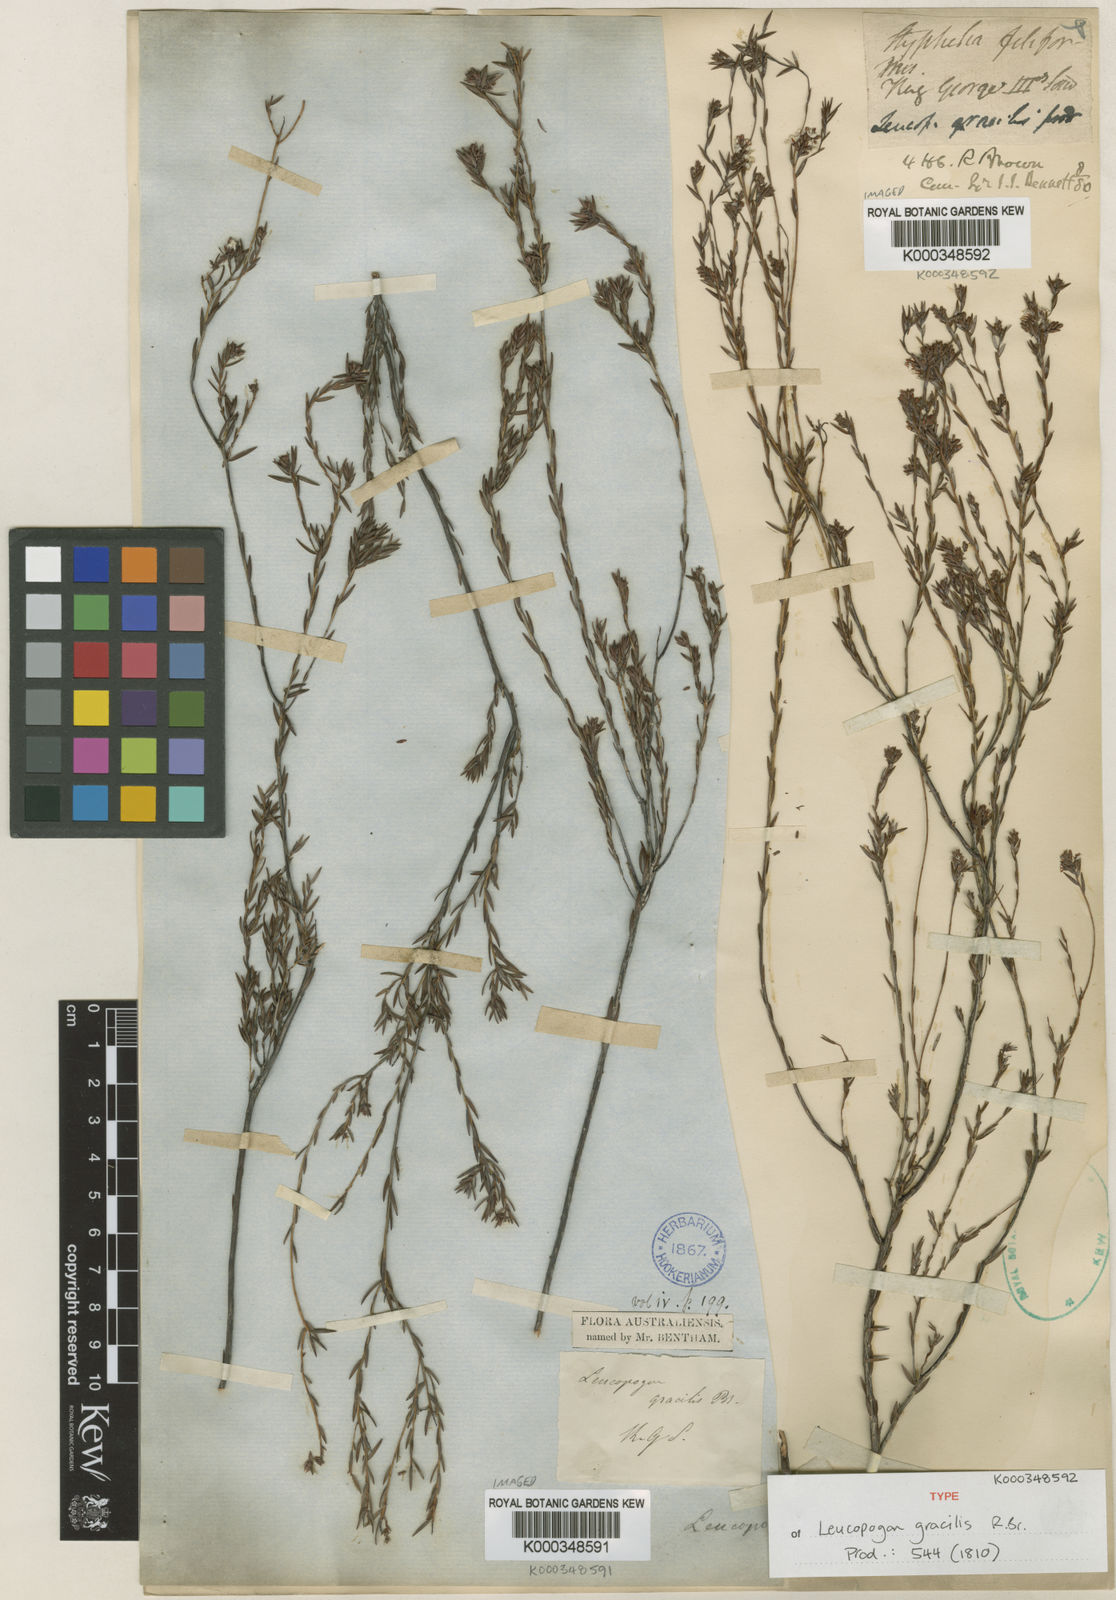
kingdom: Plantae
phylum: Tracheophyta
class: Magnoliopsida
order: Ericales
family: Ericaceae
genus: Leucopogon
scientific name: Leucopogon gracilis
